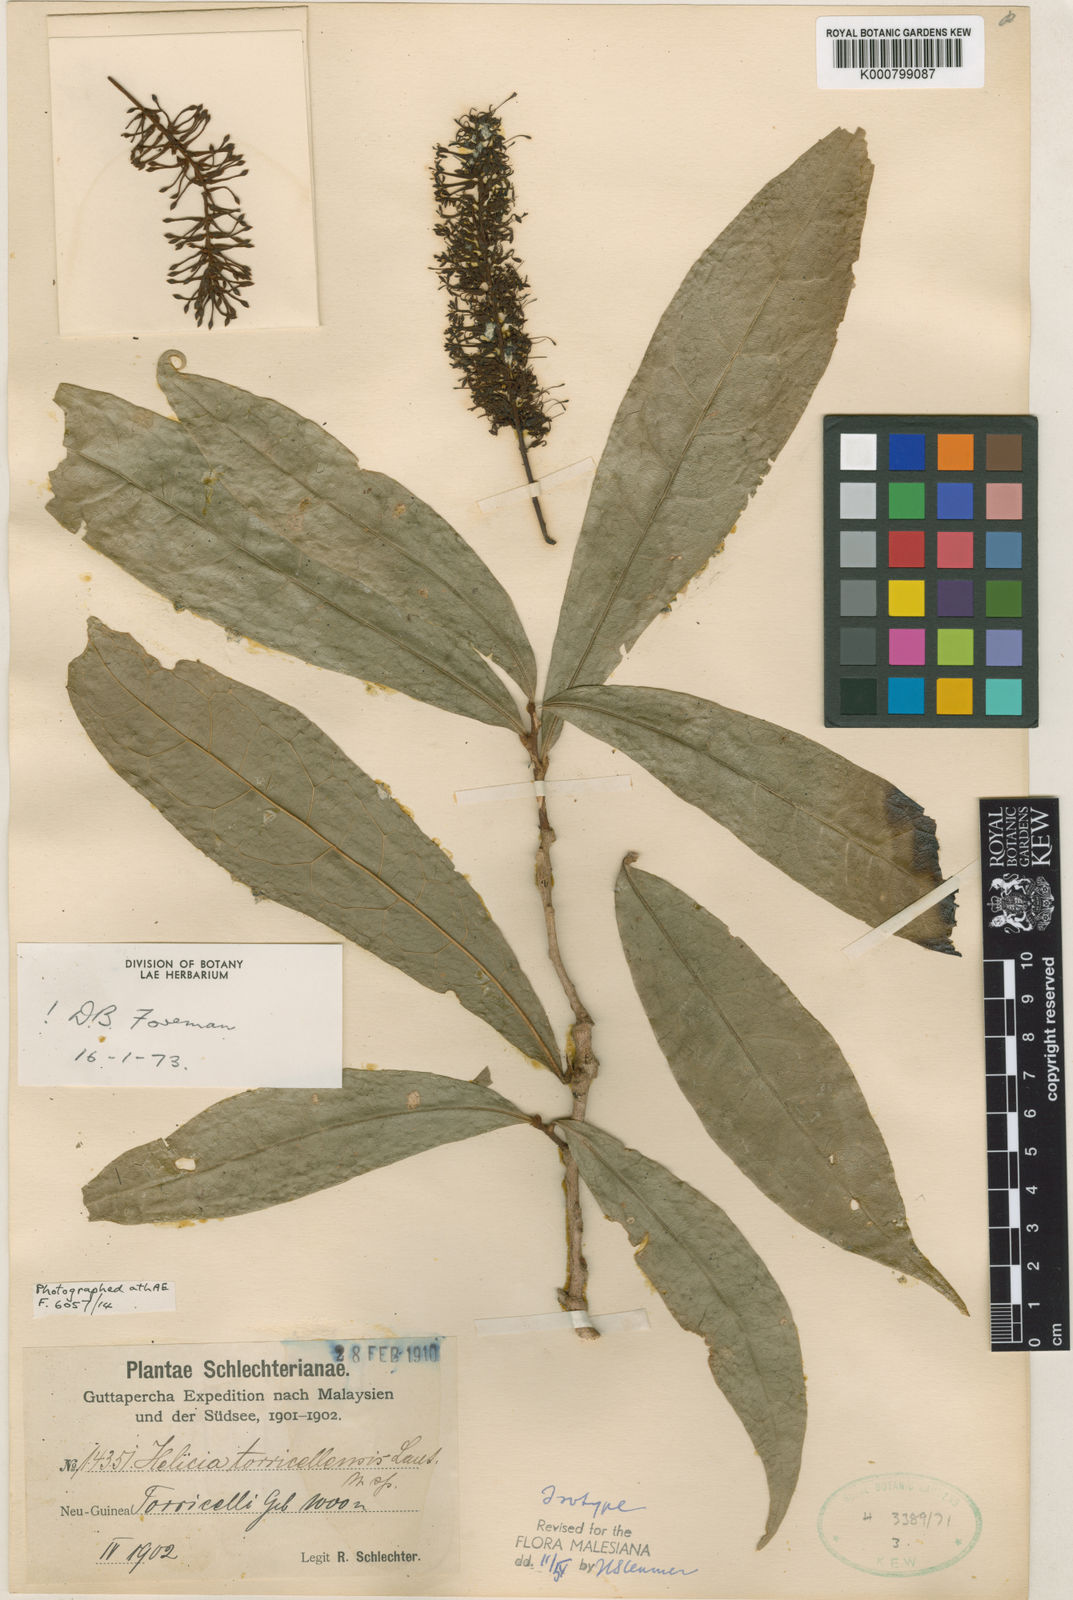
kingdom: Plantae
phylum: Tracheophyta
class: Magnoliopsida
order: Proteales
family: Proteaceae
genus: Helicia
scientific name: Helicia torricellensis
